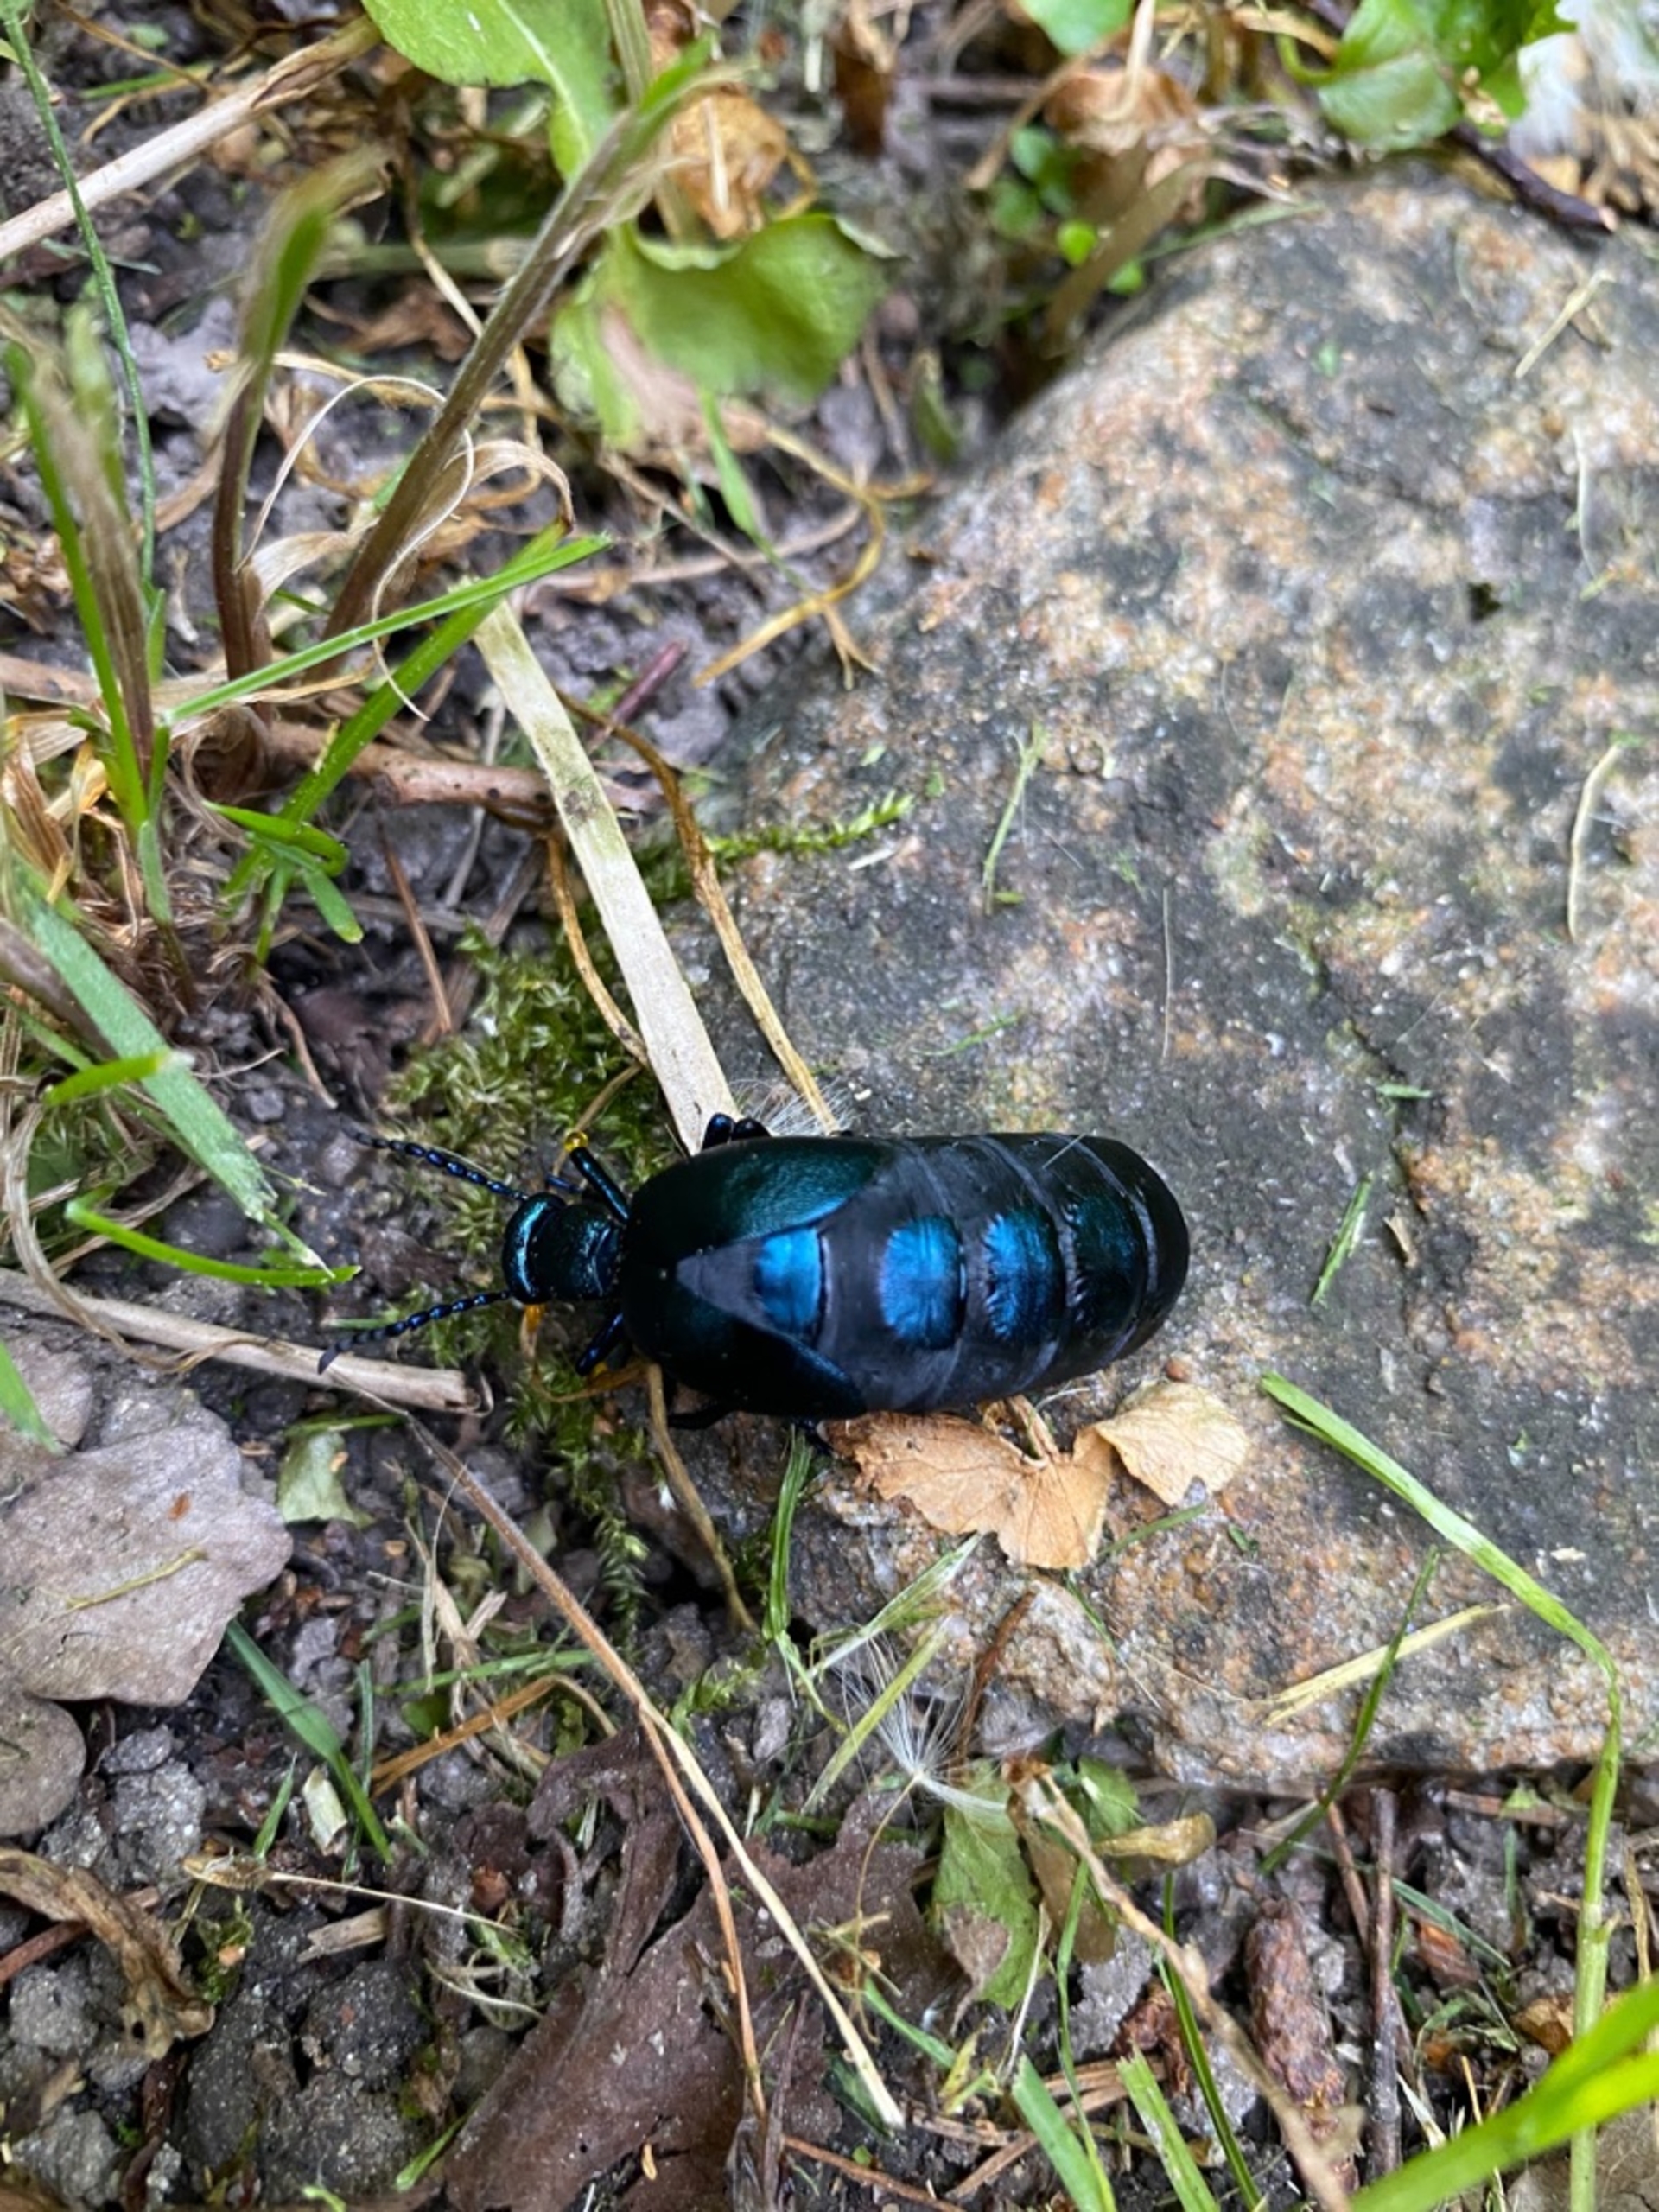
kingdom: Animalia
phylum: Arthropoda
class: Insecta
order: Coleoptera
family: Meloidae
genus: Meloe
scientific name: Meloe violaceus
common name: Blå oliebille
